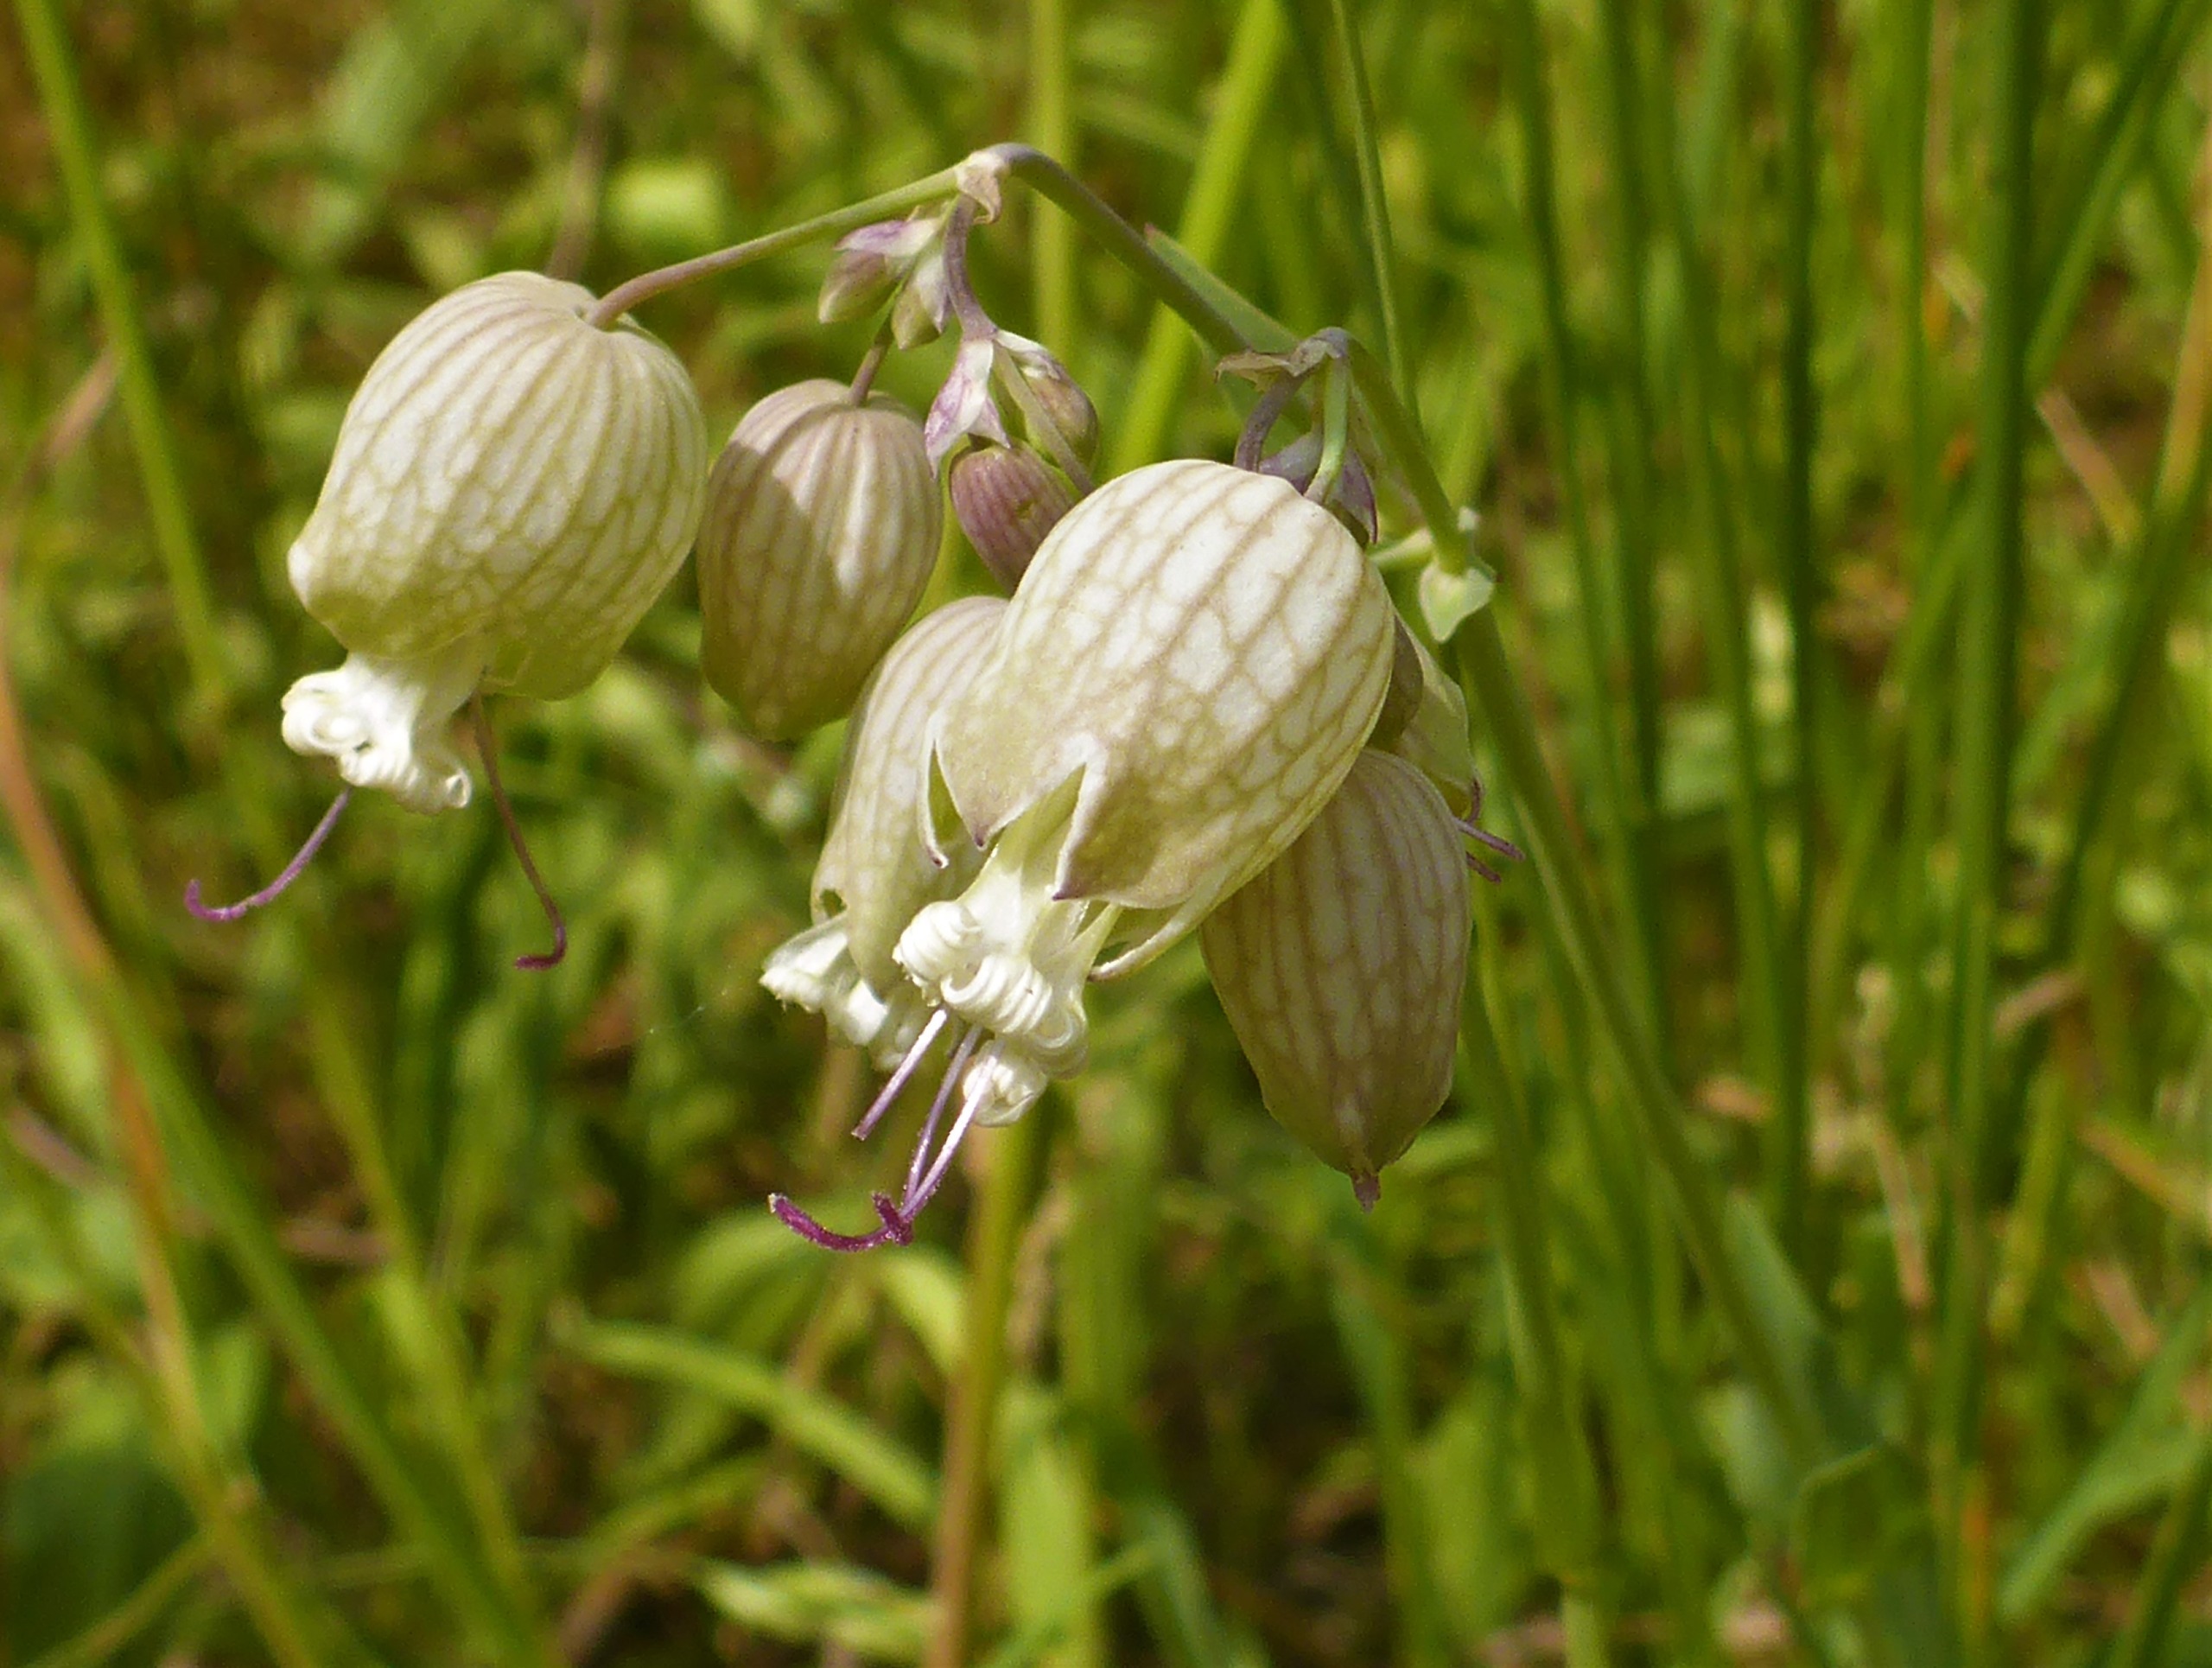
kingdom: Plantae
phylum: Tracheophyta
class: Magnoliopsida
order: Caryophyllales
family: Caryophyllaceae
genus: Silene
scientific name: Silene vulgaris
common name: Blæresmælde
